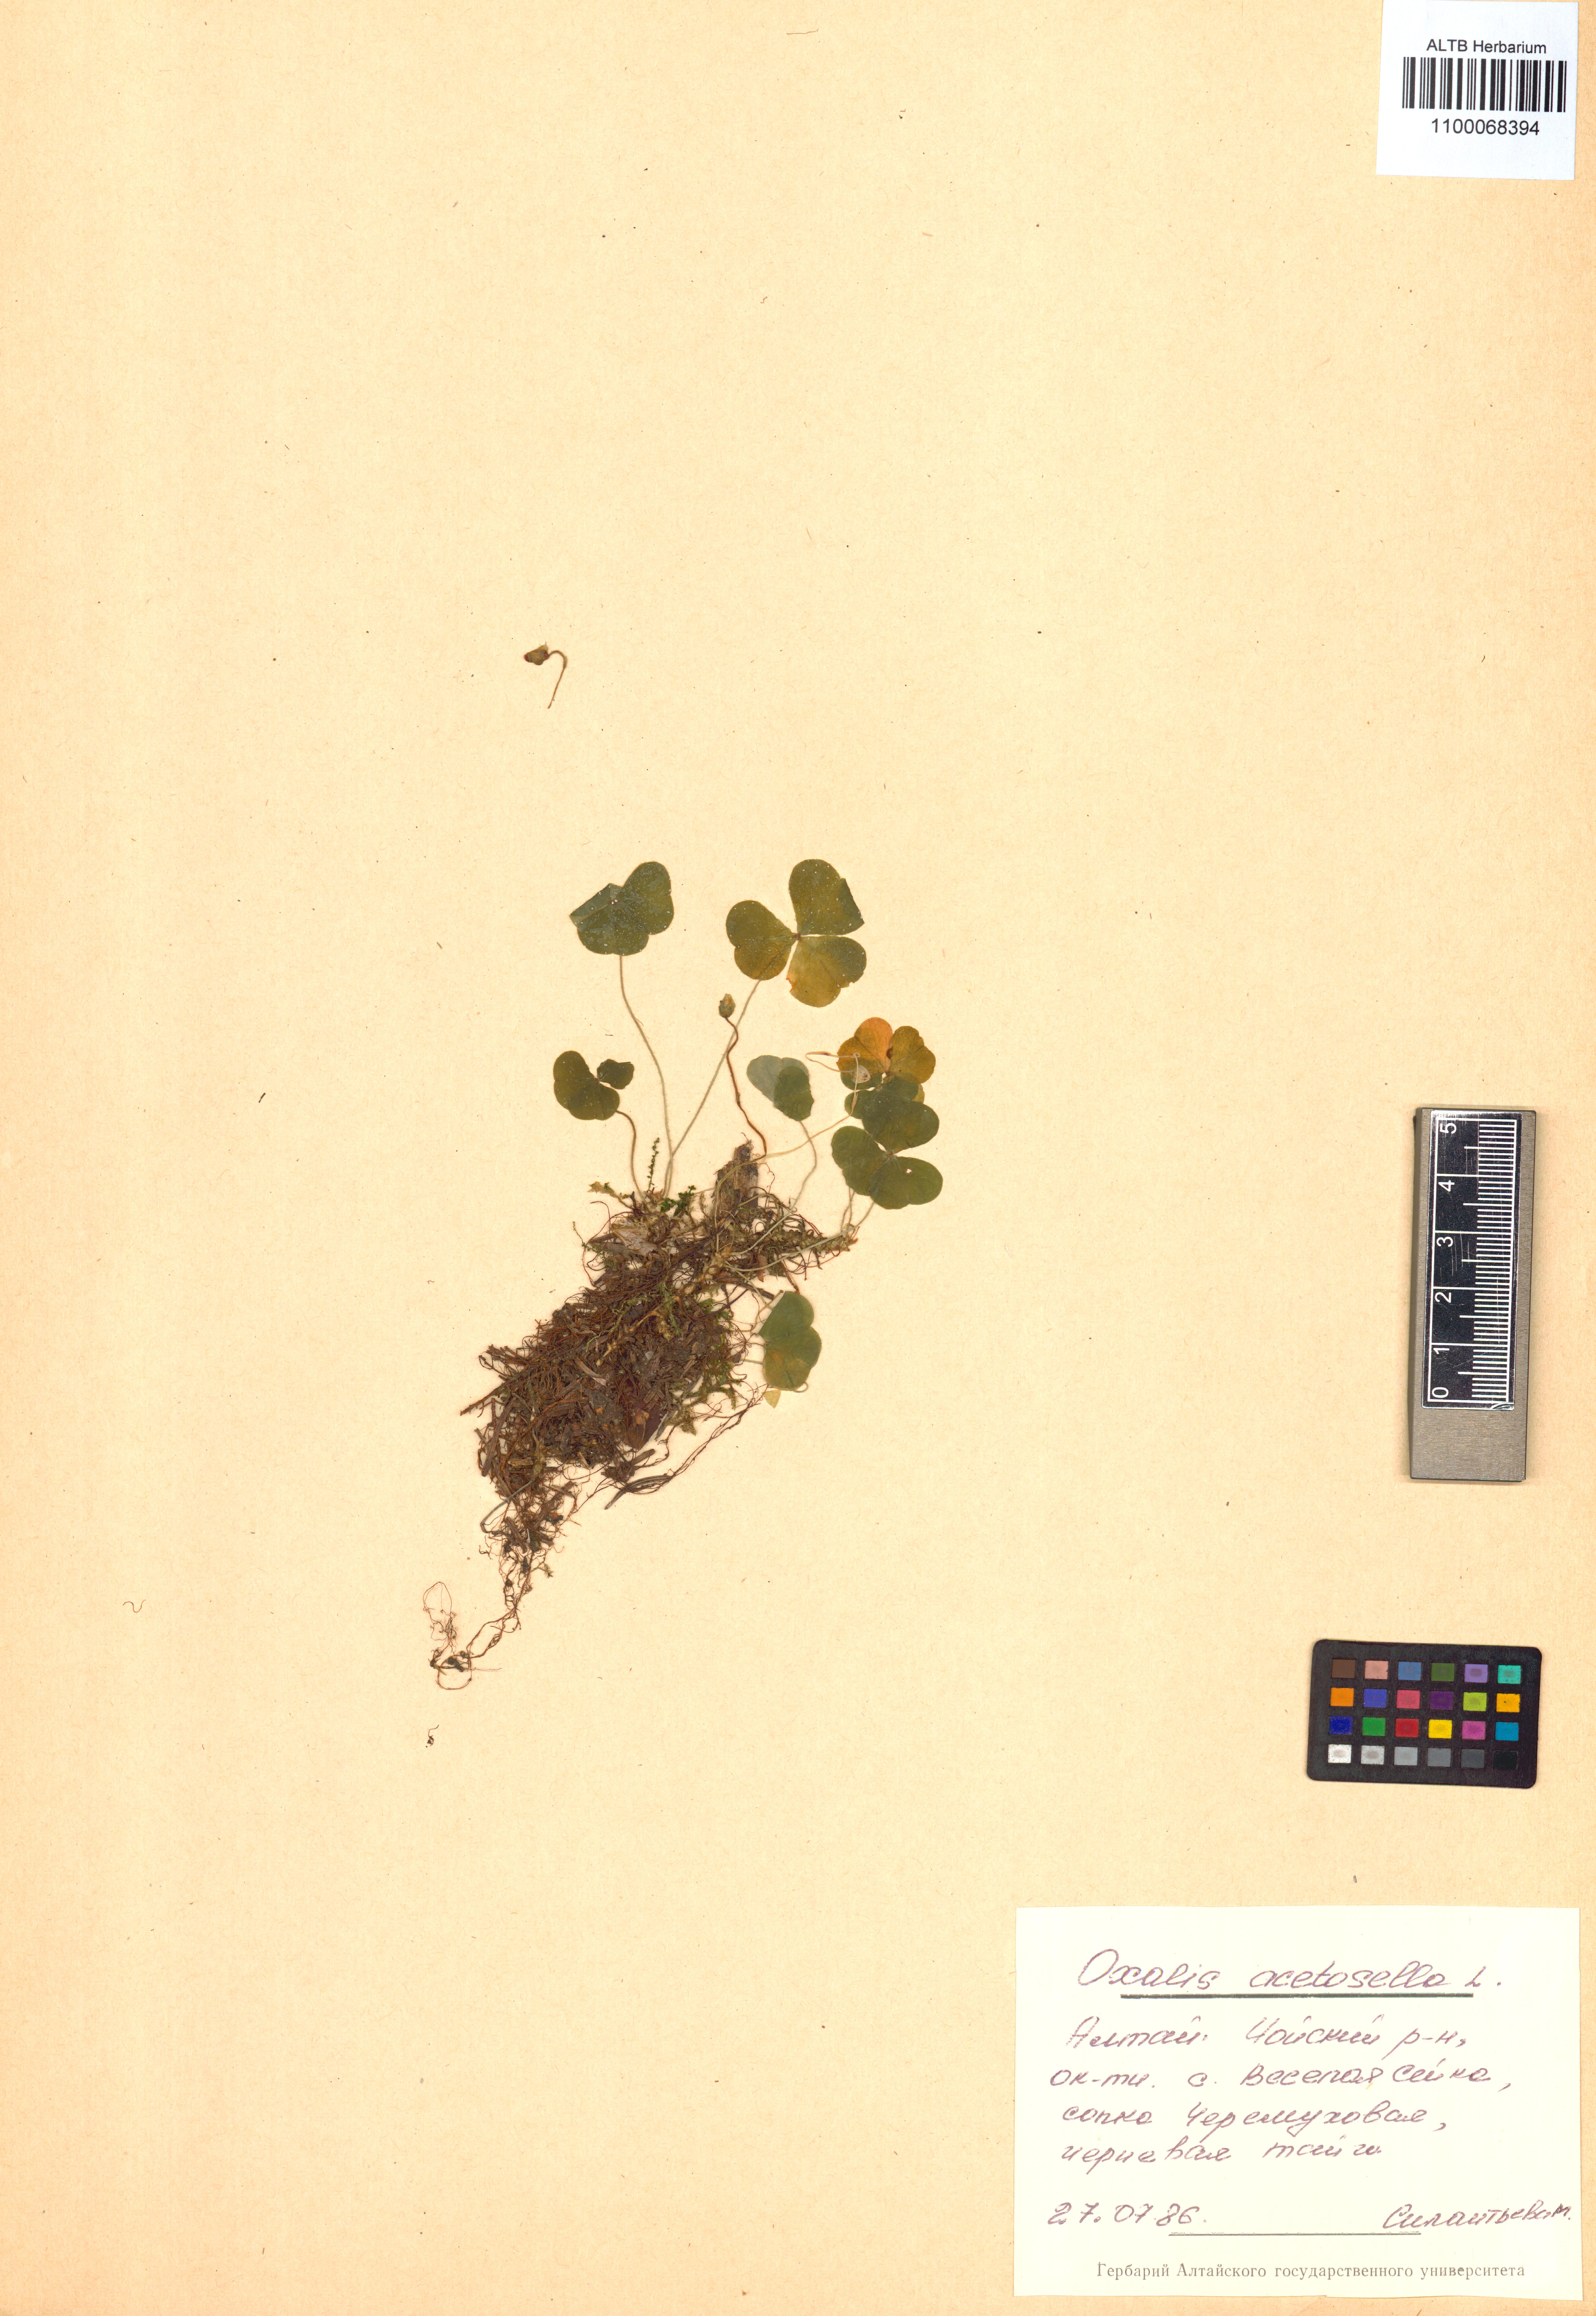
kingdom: Plantae
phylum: Tracheophyta
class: Magnoliopsida
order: Oxalidales
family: Oxalidaceae
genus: Oxalis
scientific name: Oxalis acetosella
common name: Wood-sorrel
